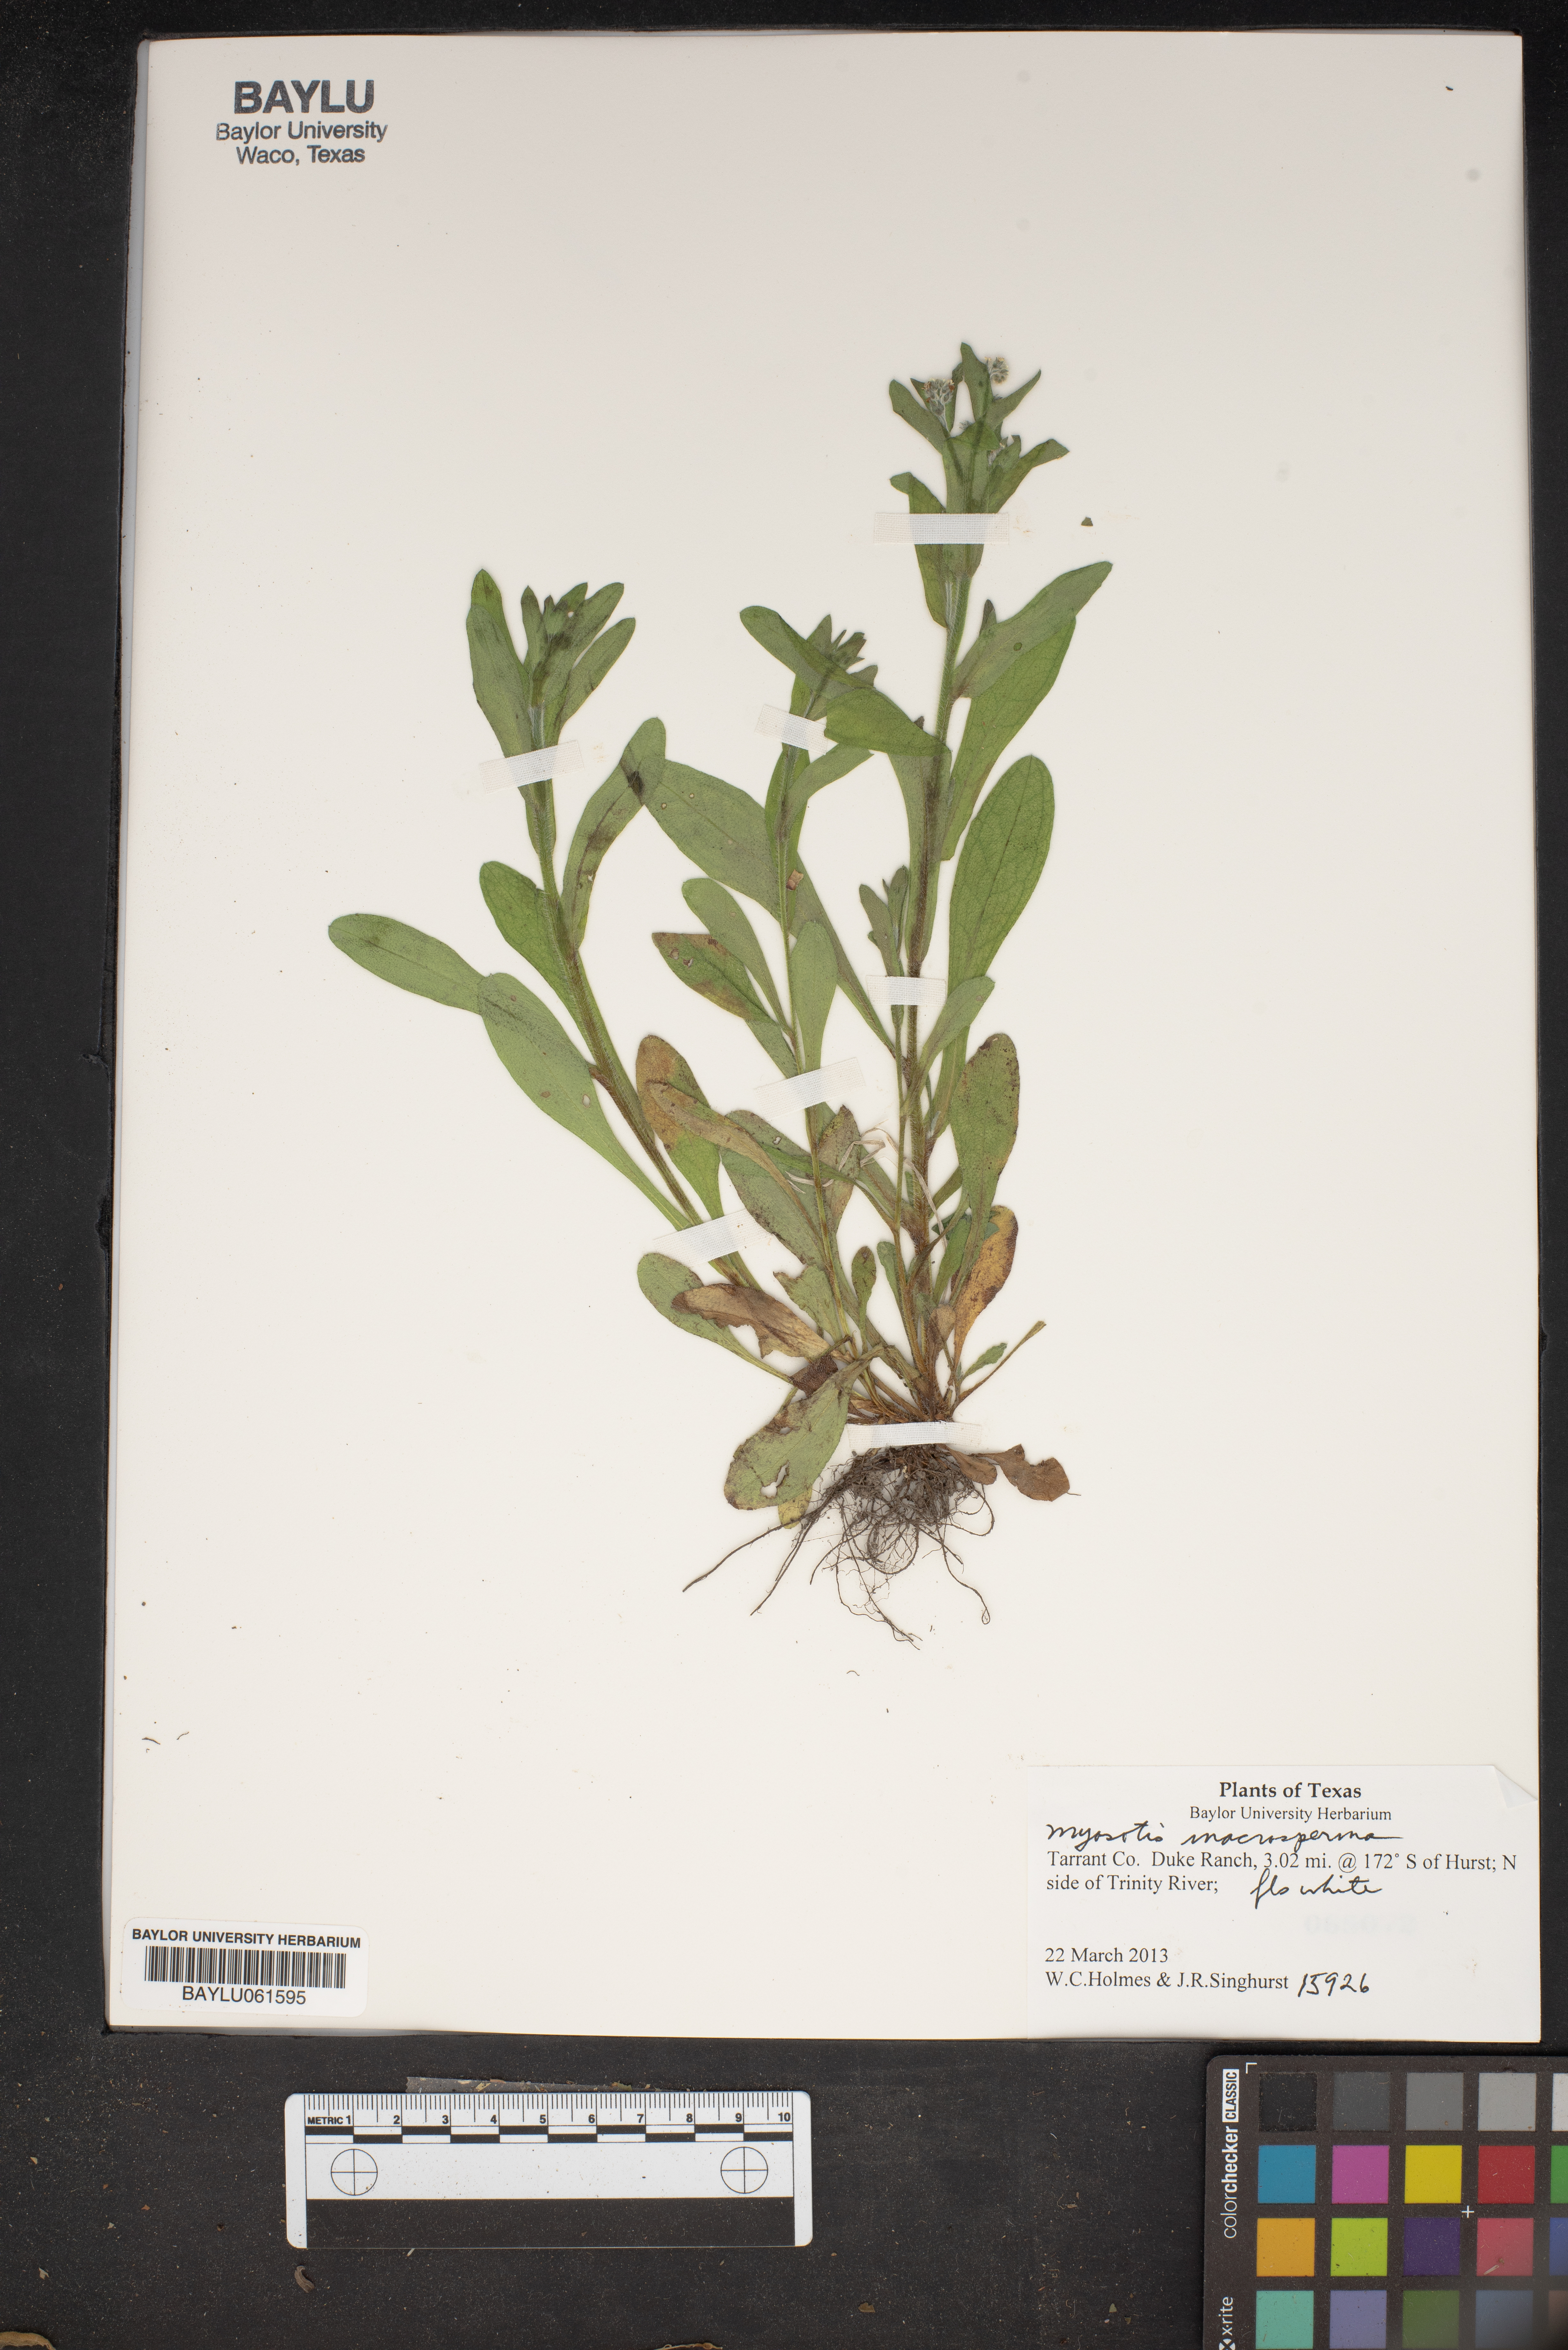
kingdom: Plantae
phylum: Tracheophyta
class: Magnoliopsida
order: Boraginales
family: Boraginaceae
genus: Myosotis
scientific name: Myosotis macrosperma
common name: Large-seed forget-me-not
